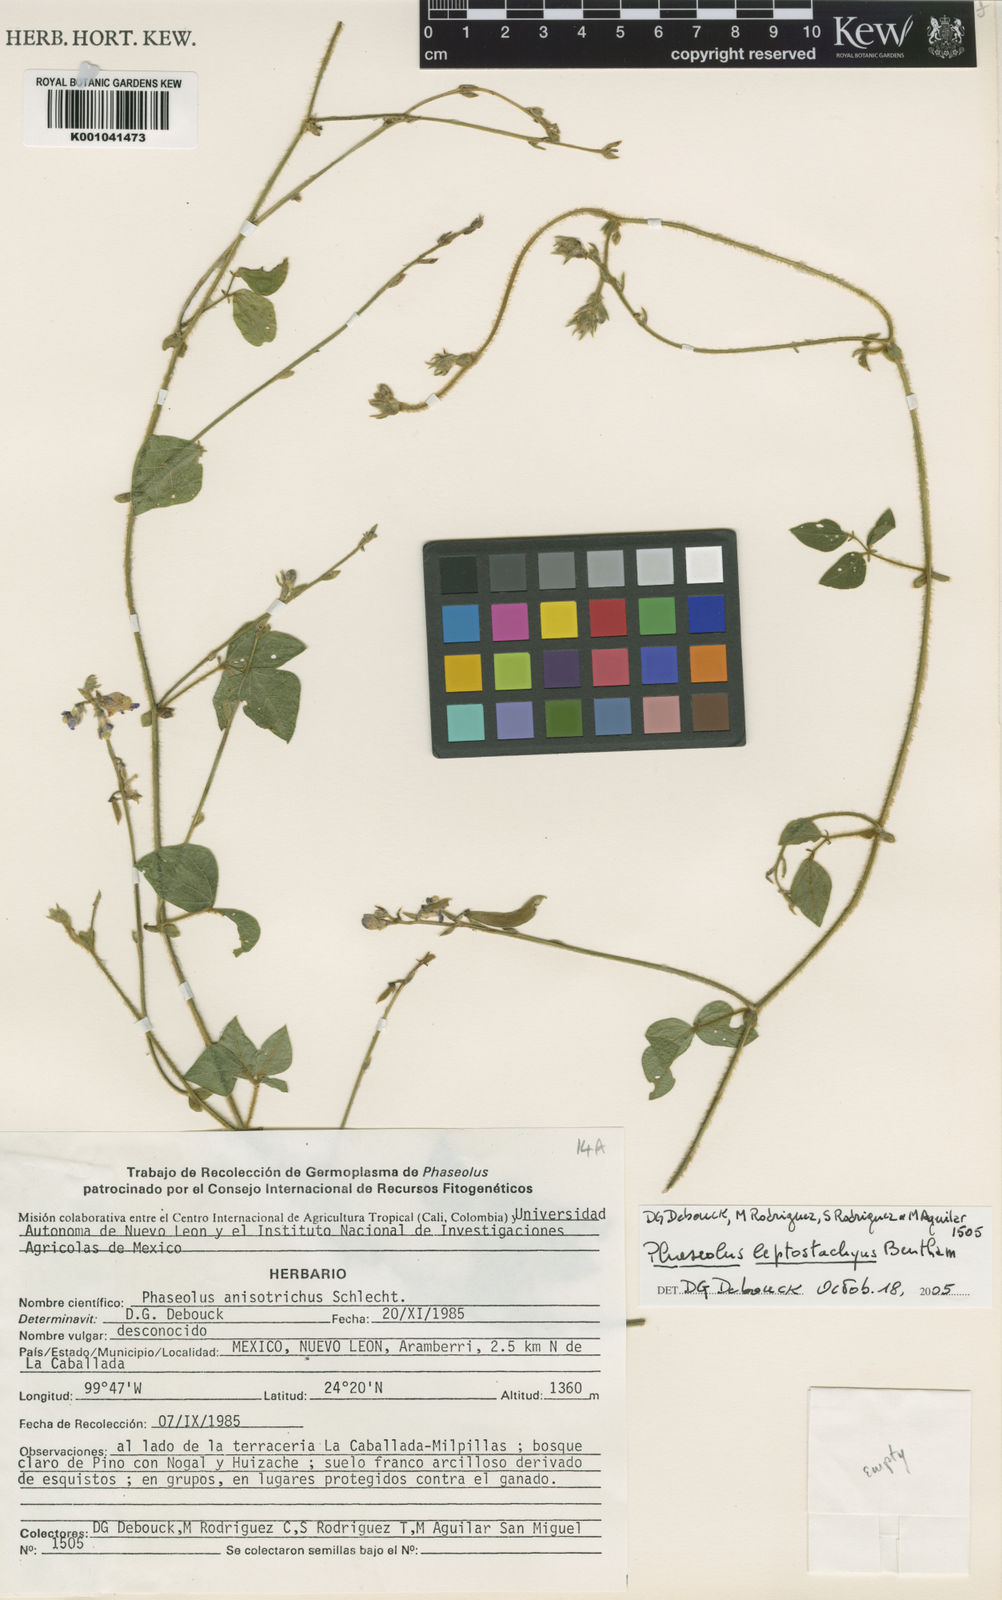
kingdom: Plantae
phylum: Tracheophyta
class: Magnoliopsida
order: Fabales
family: Fabaceae
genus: Phaseolus
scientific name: Phaseolus
